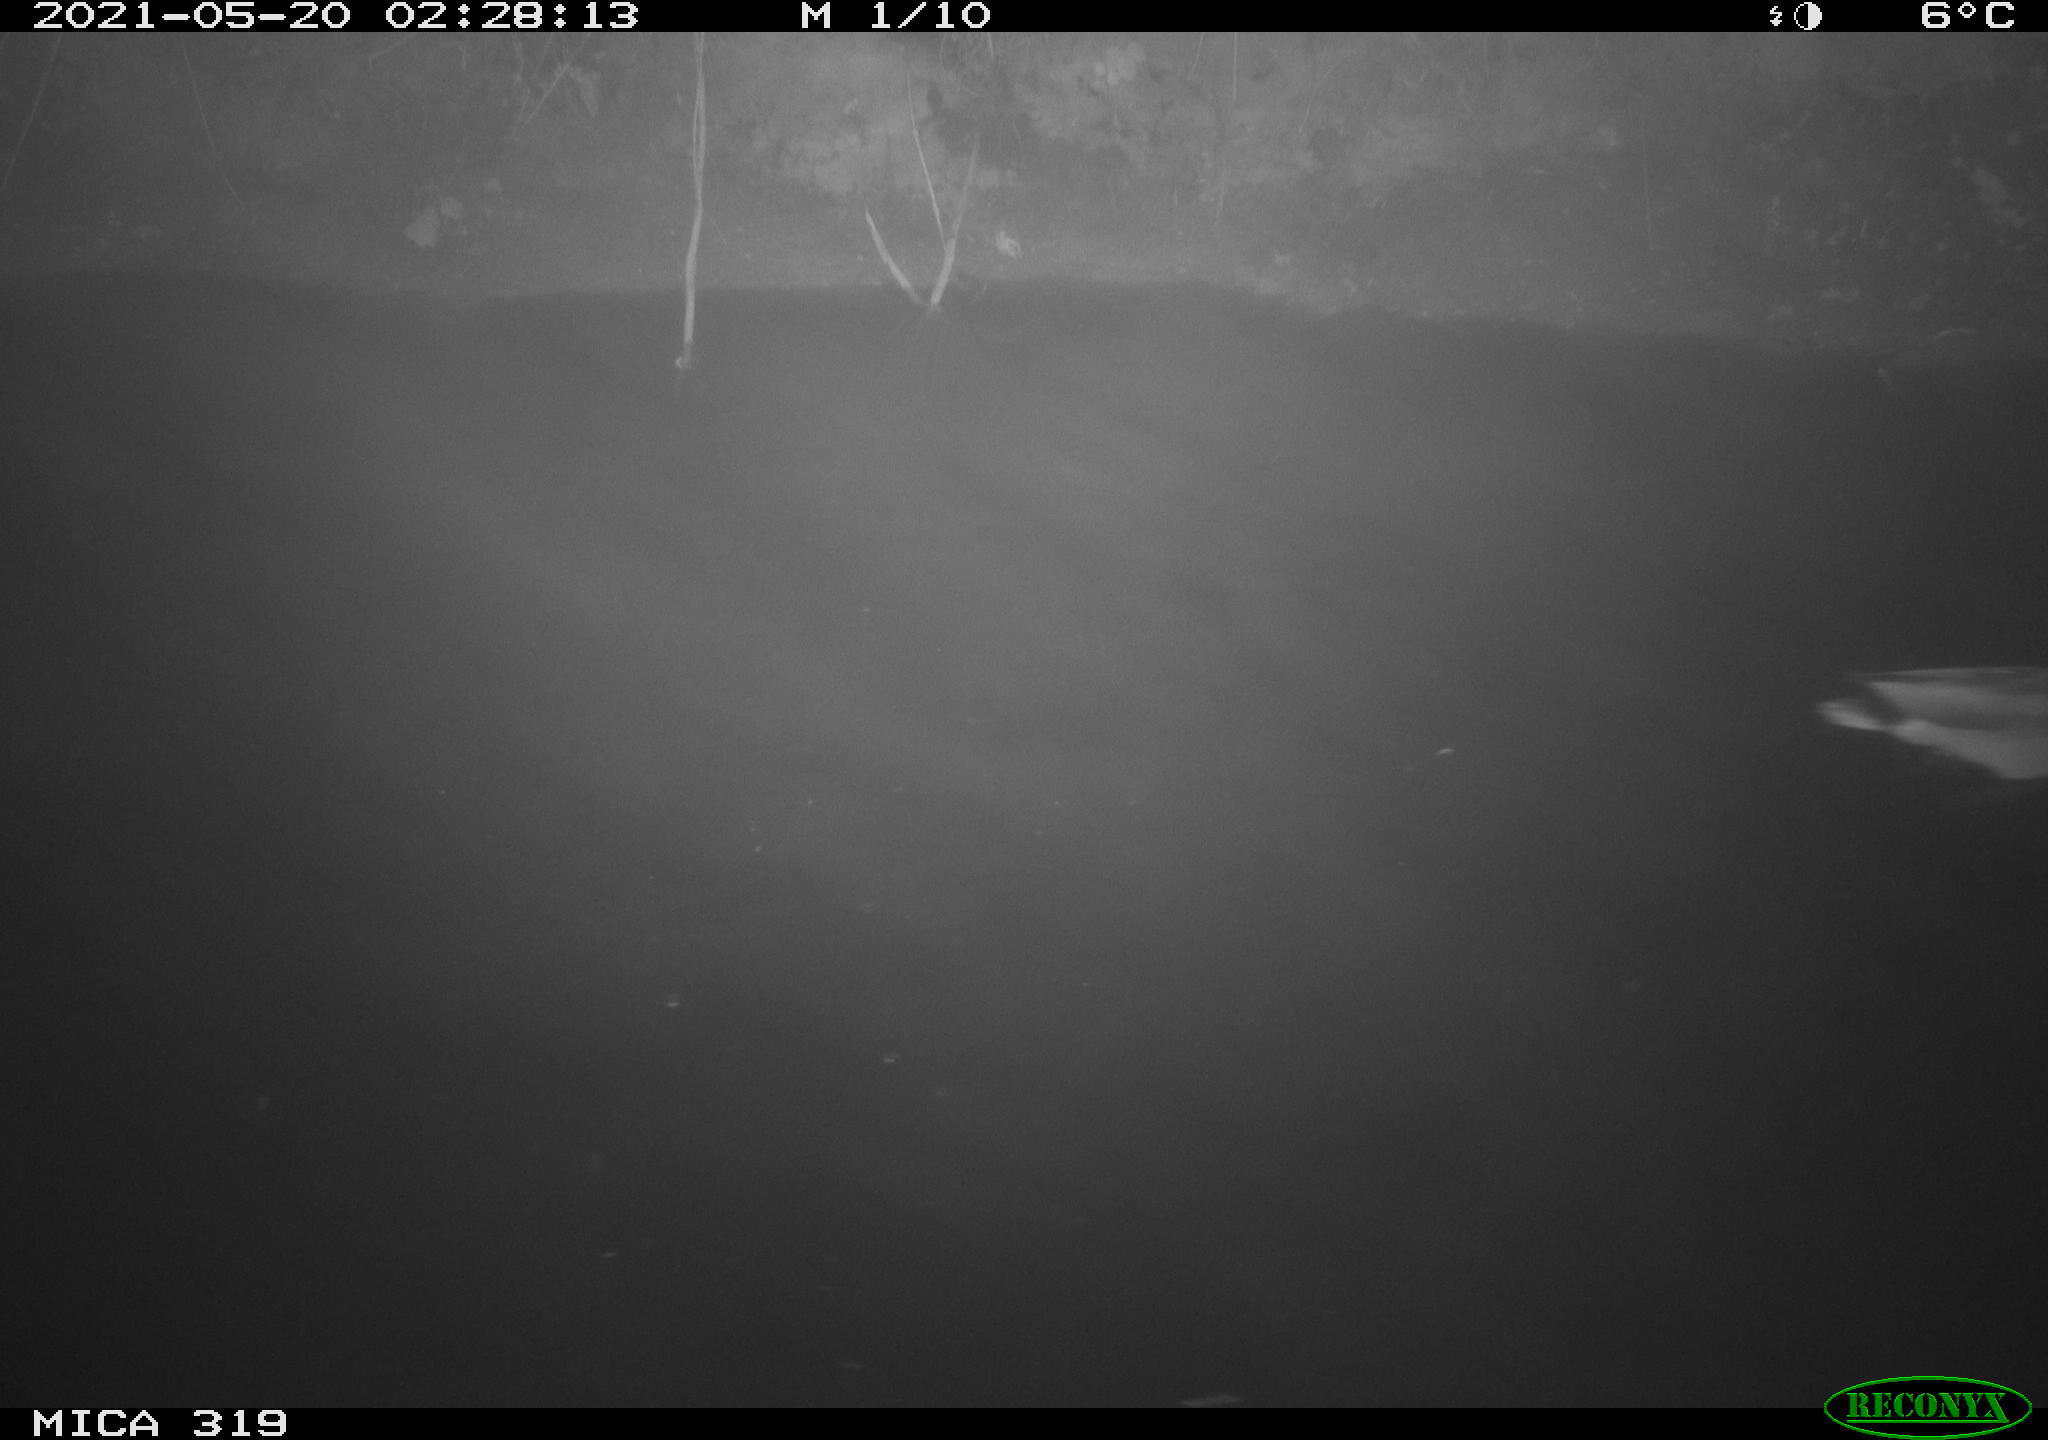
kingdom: Animalia
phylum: Chordata
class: Aves
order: Anseriformes
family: Anatidae
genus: Anas
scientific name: Anas platyrhynchos
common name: Mallard
